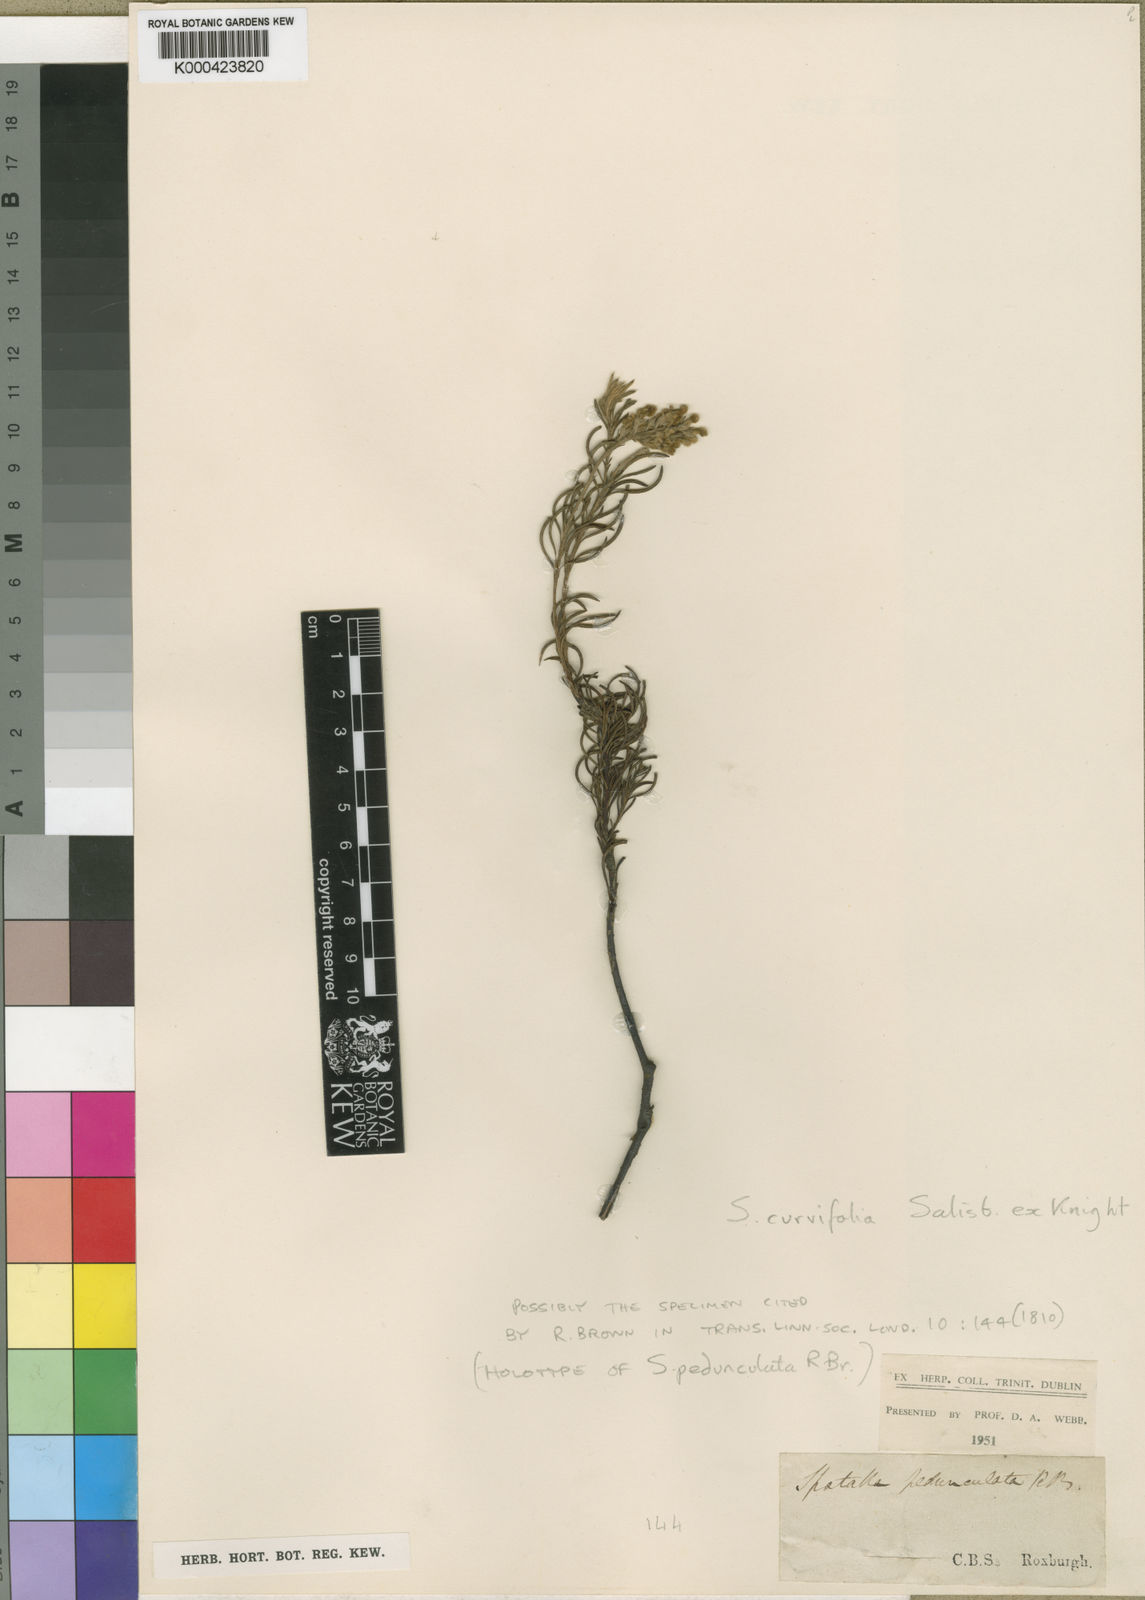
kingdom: Plantae
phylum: Tracheophyta
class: Magnoliopsida
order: Proteales
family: Proteaceae
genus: Spatalla
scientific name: Spatalla curvifolia
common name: White-stalked spoon
